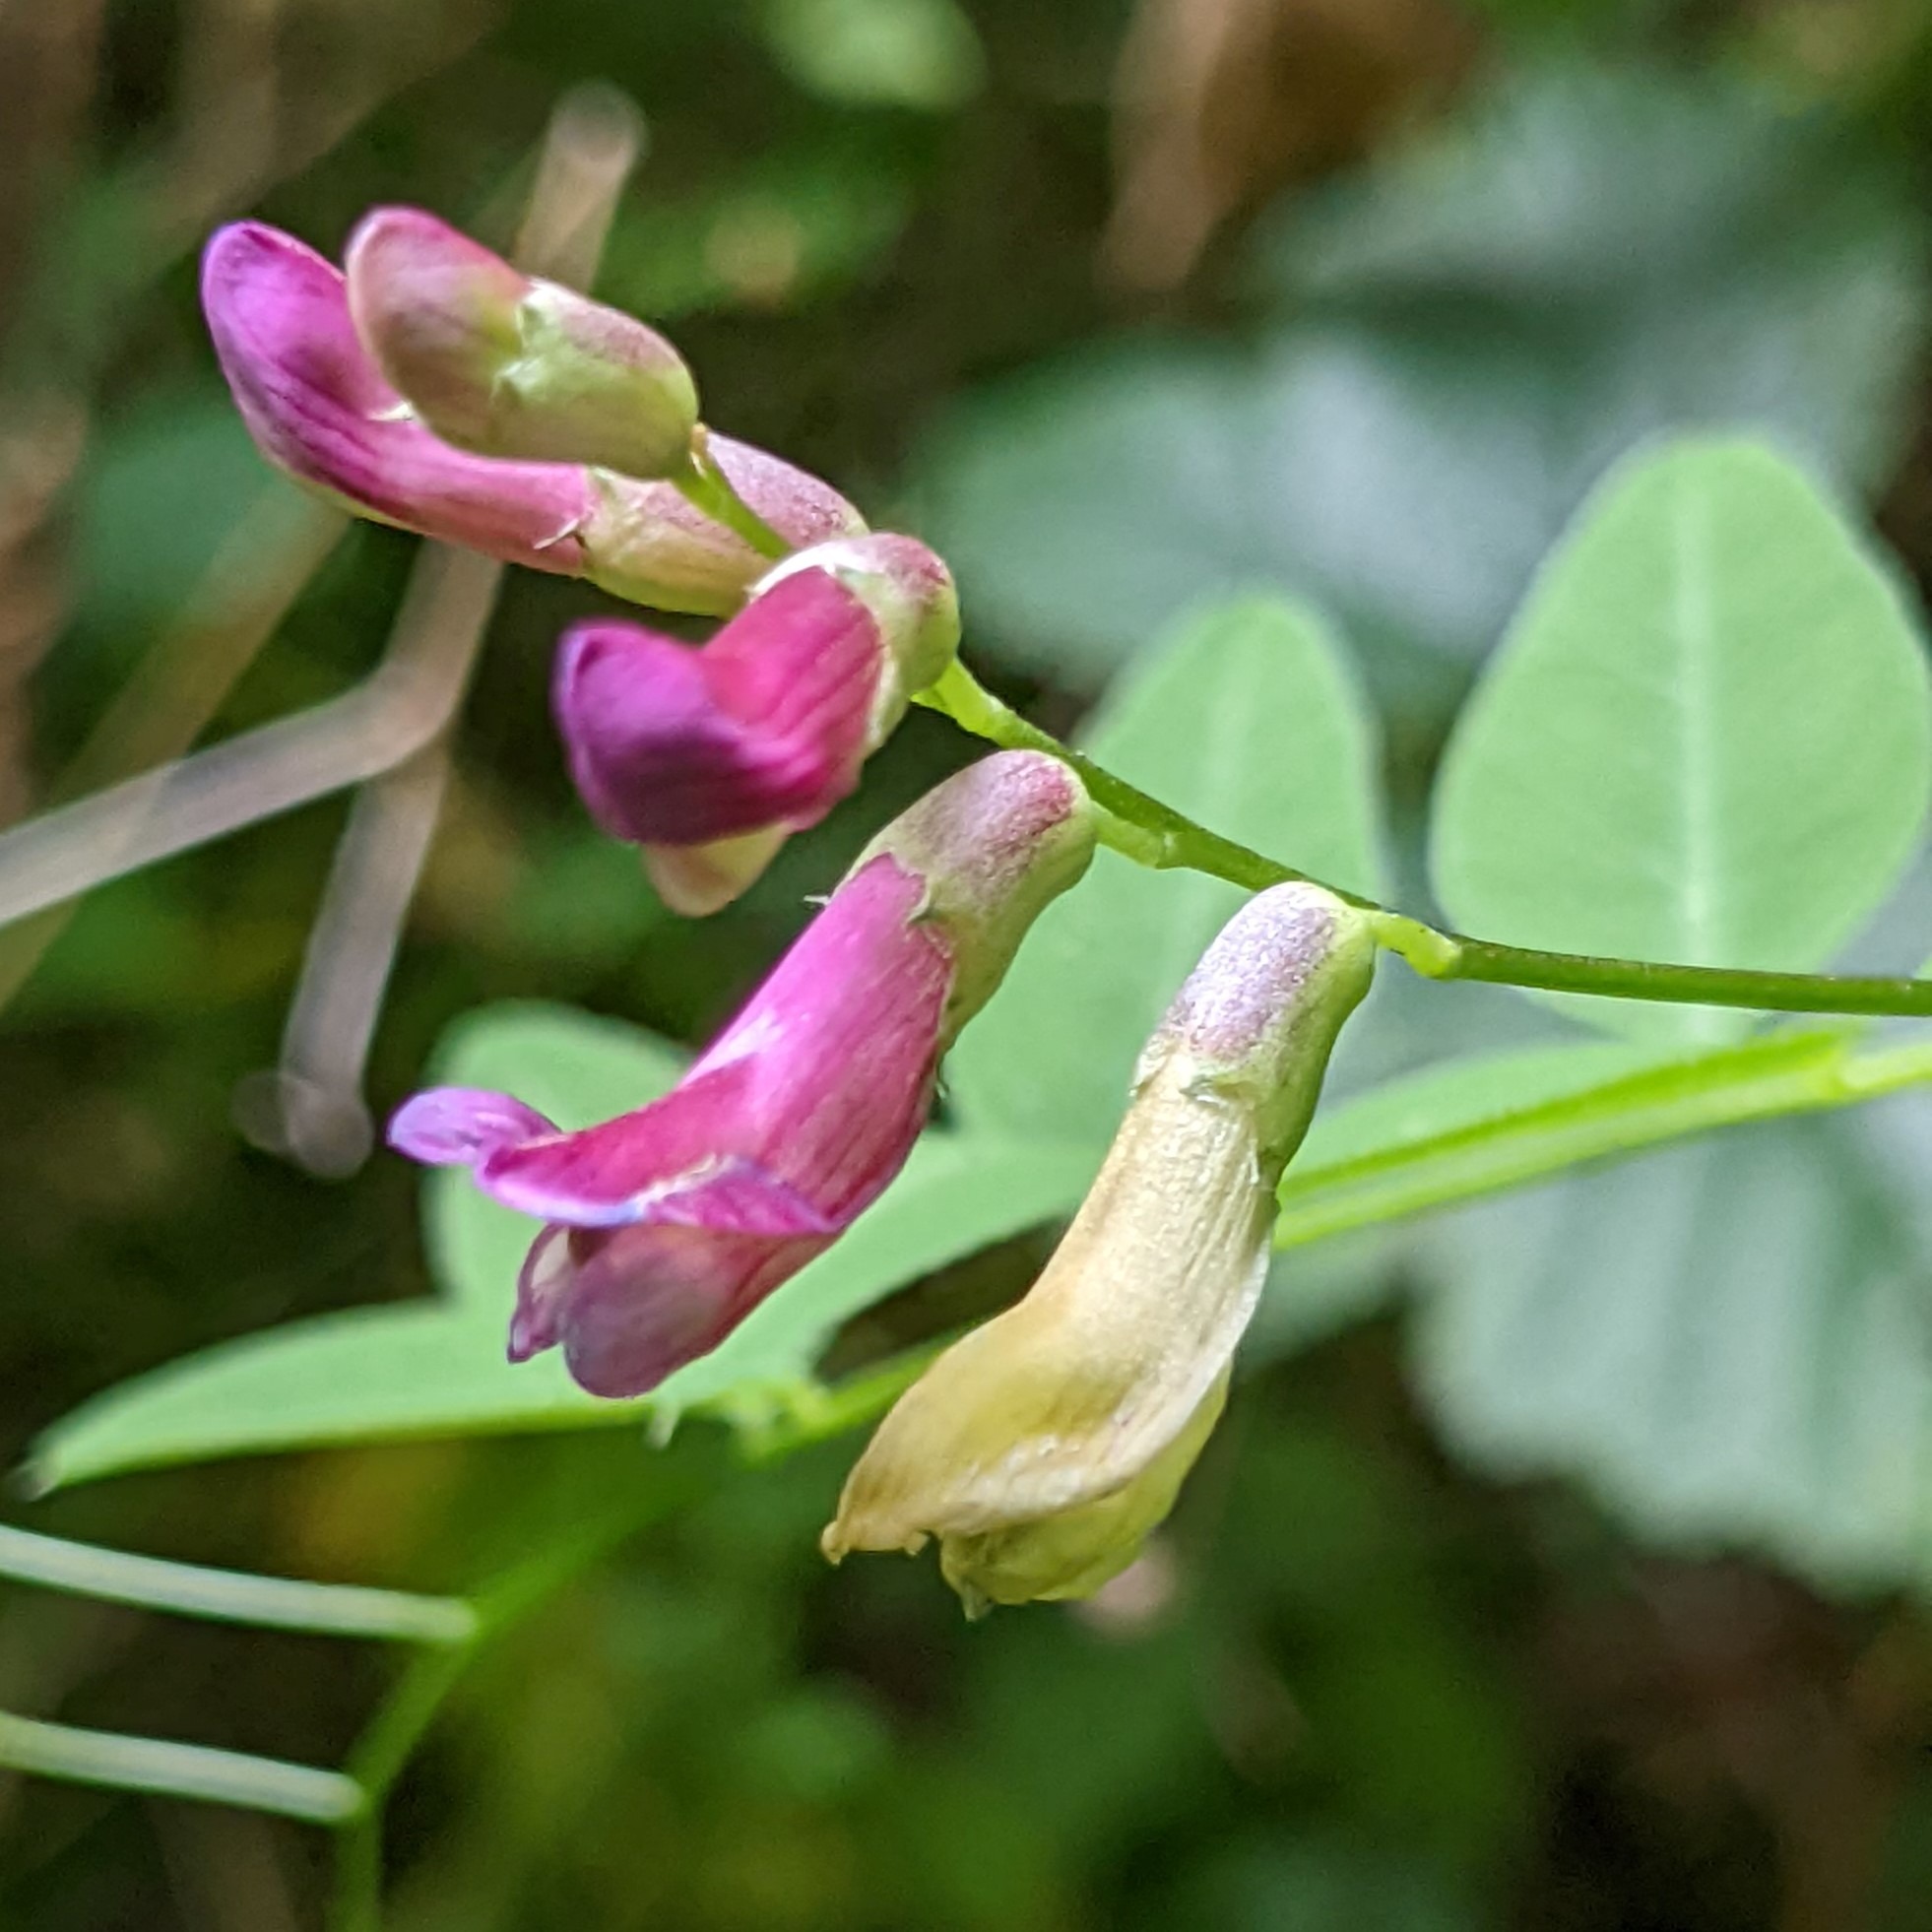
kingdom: Plantae
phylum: Tracheophyta
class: Magnoliopsida
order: Fabales
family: Fabaceae
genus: Vicia
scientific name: Vicia dumetorum
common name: Krat-vikke
